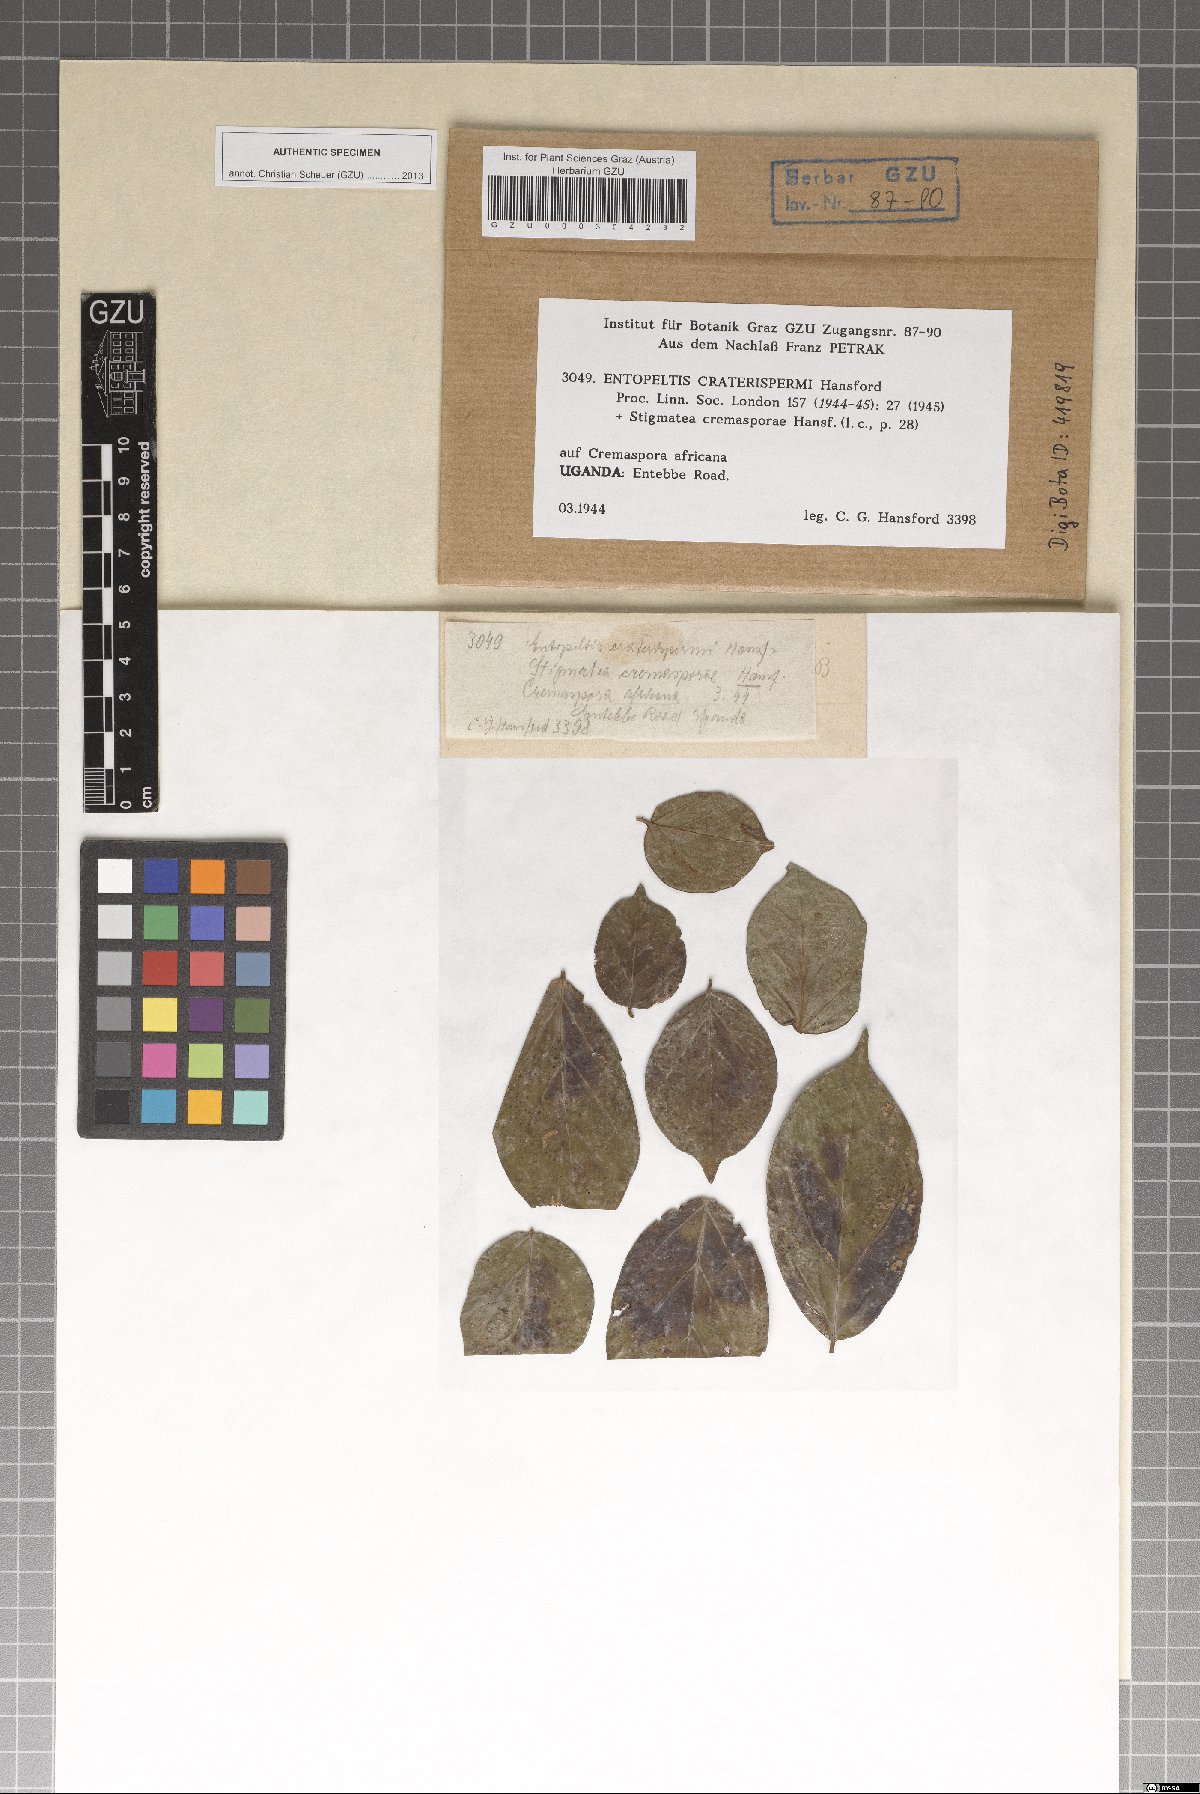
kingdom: Fungi
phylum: Ascomycota
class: Dothideomycetes
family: Vizellaceae
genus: Entopeltis
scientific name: Entopeltis craterispermi
